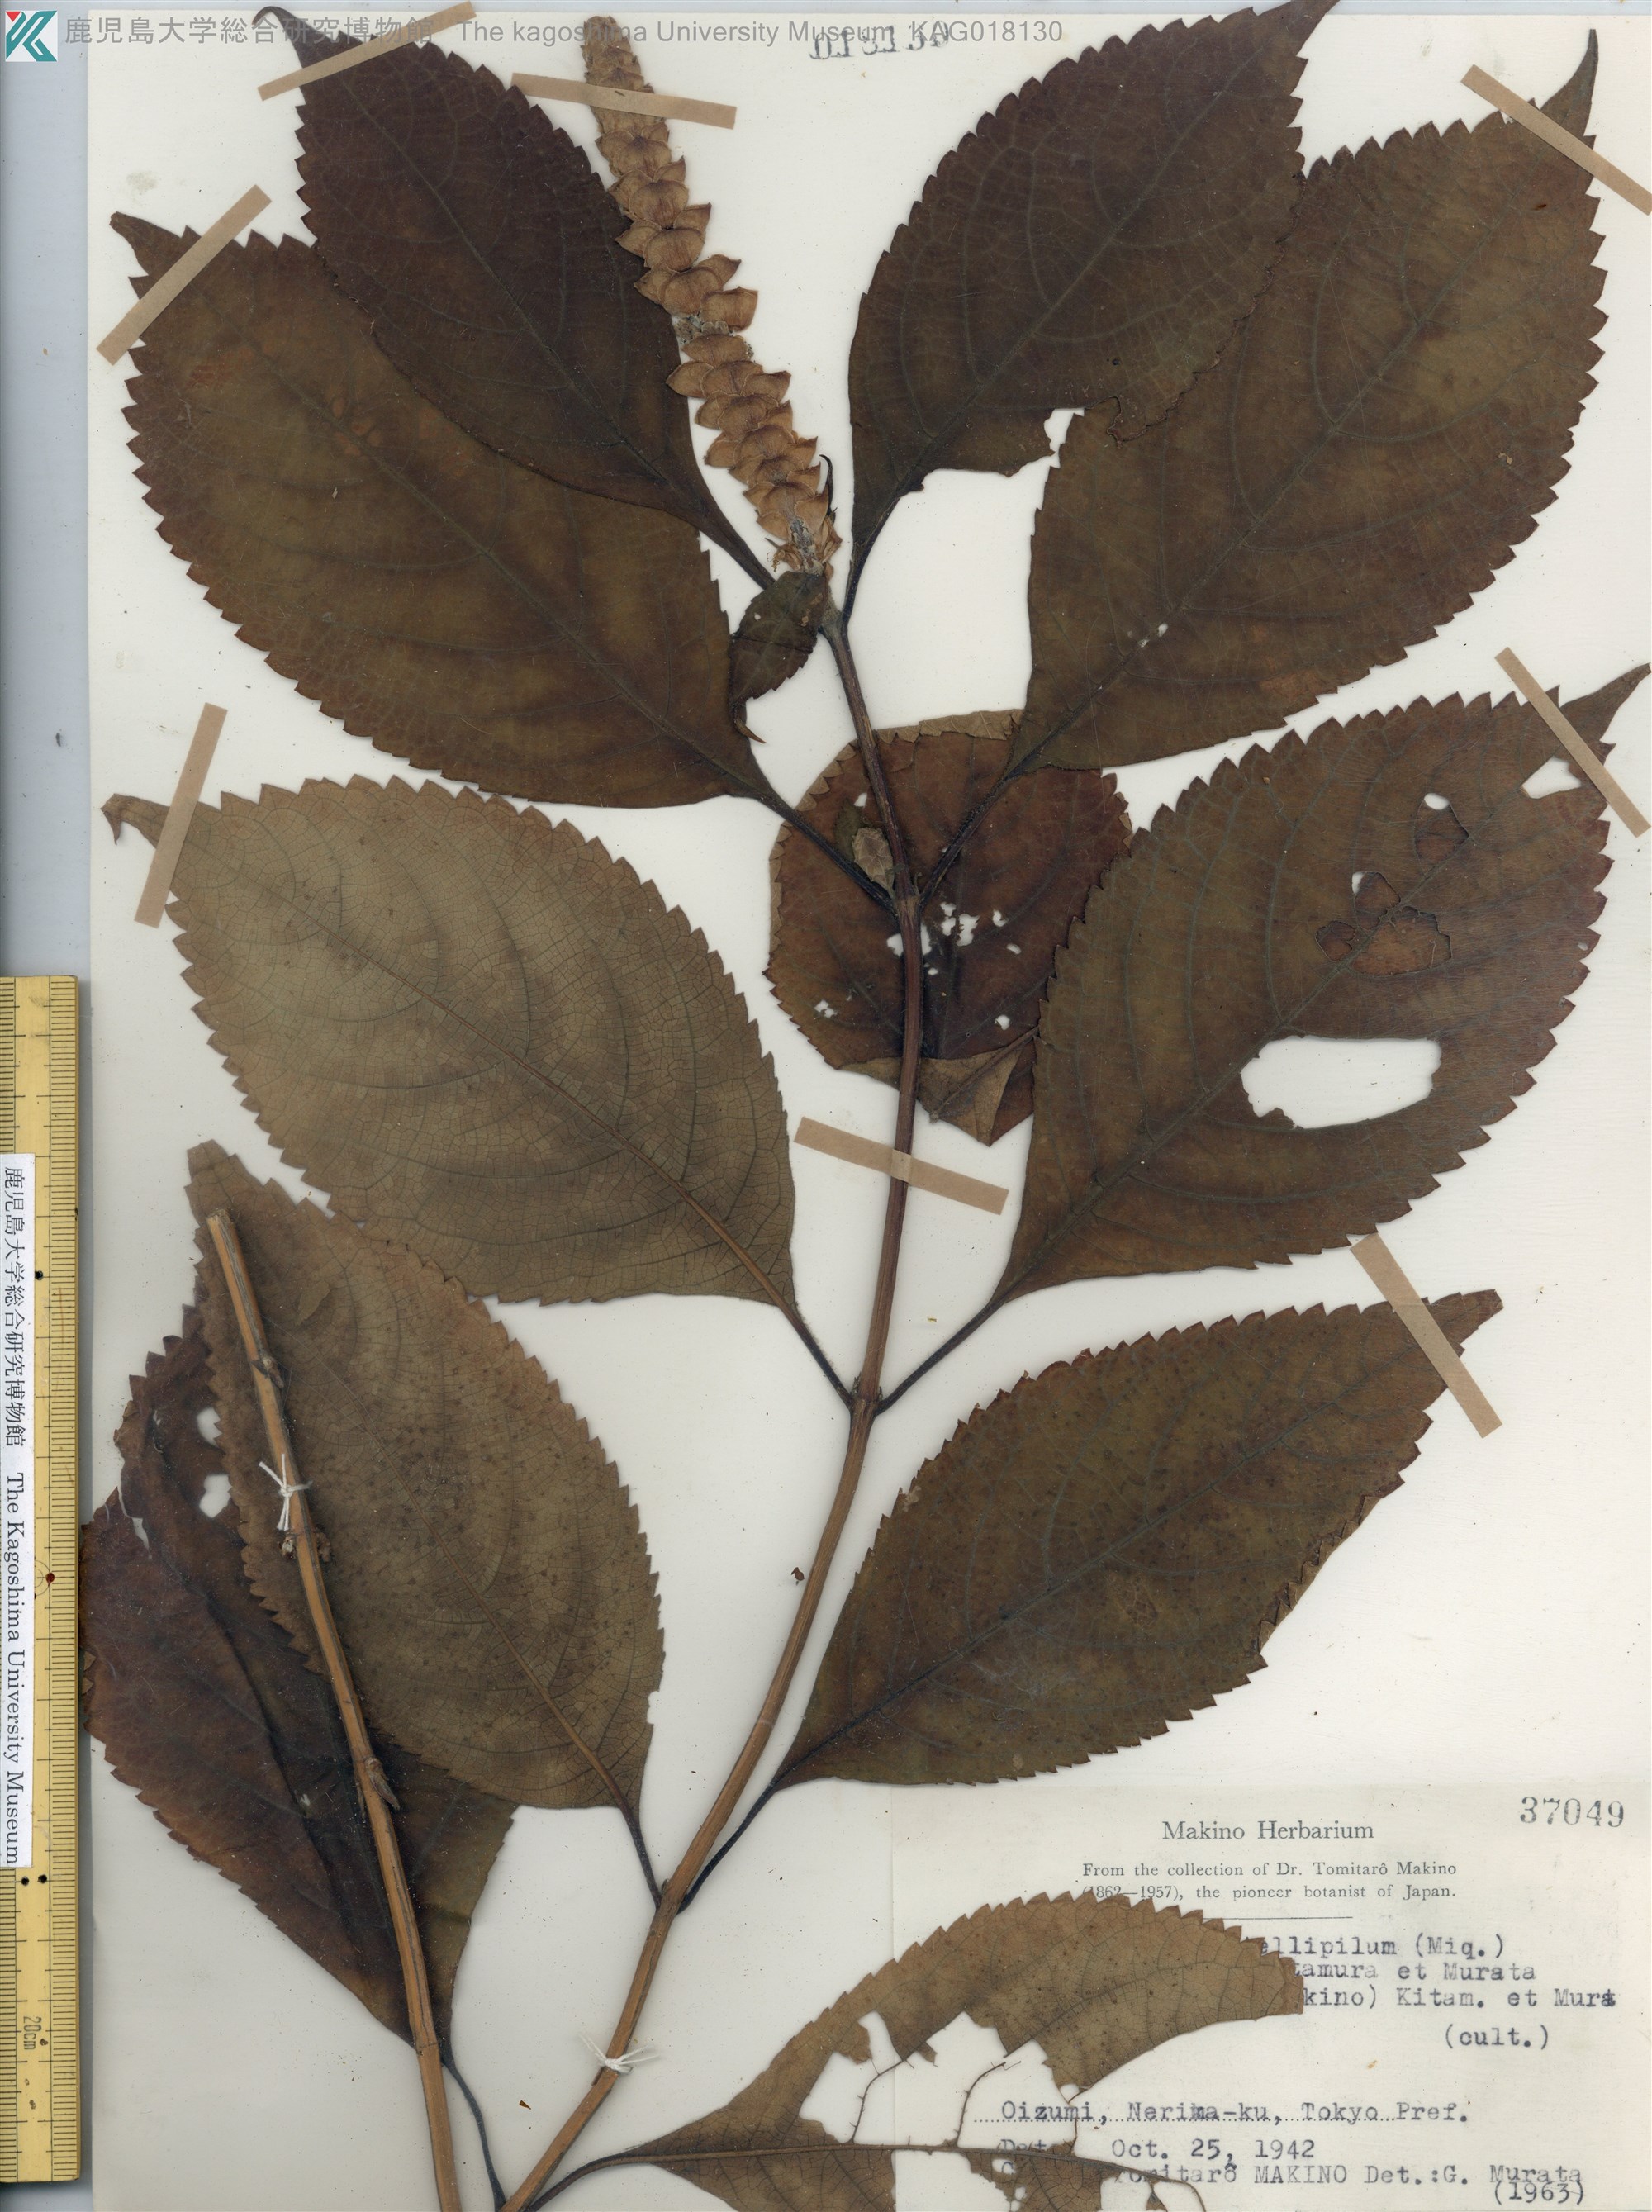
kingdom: Plantae
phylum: Tracheophyta
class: Magnoliopsida
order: Lamiales
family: Lamiaceae
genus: Comanthosphace
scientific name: Comanthosphace japonica
